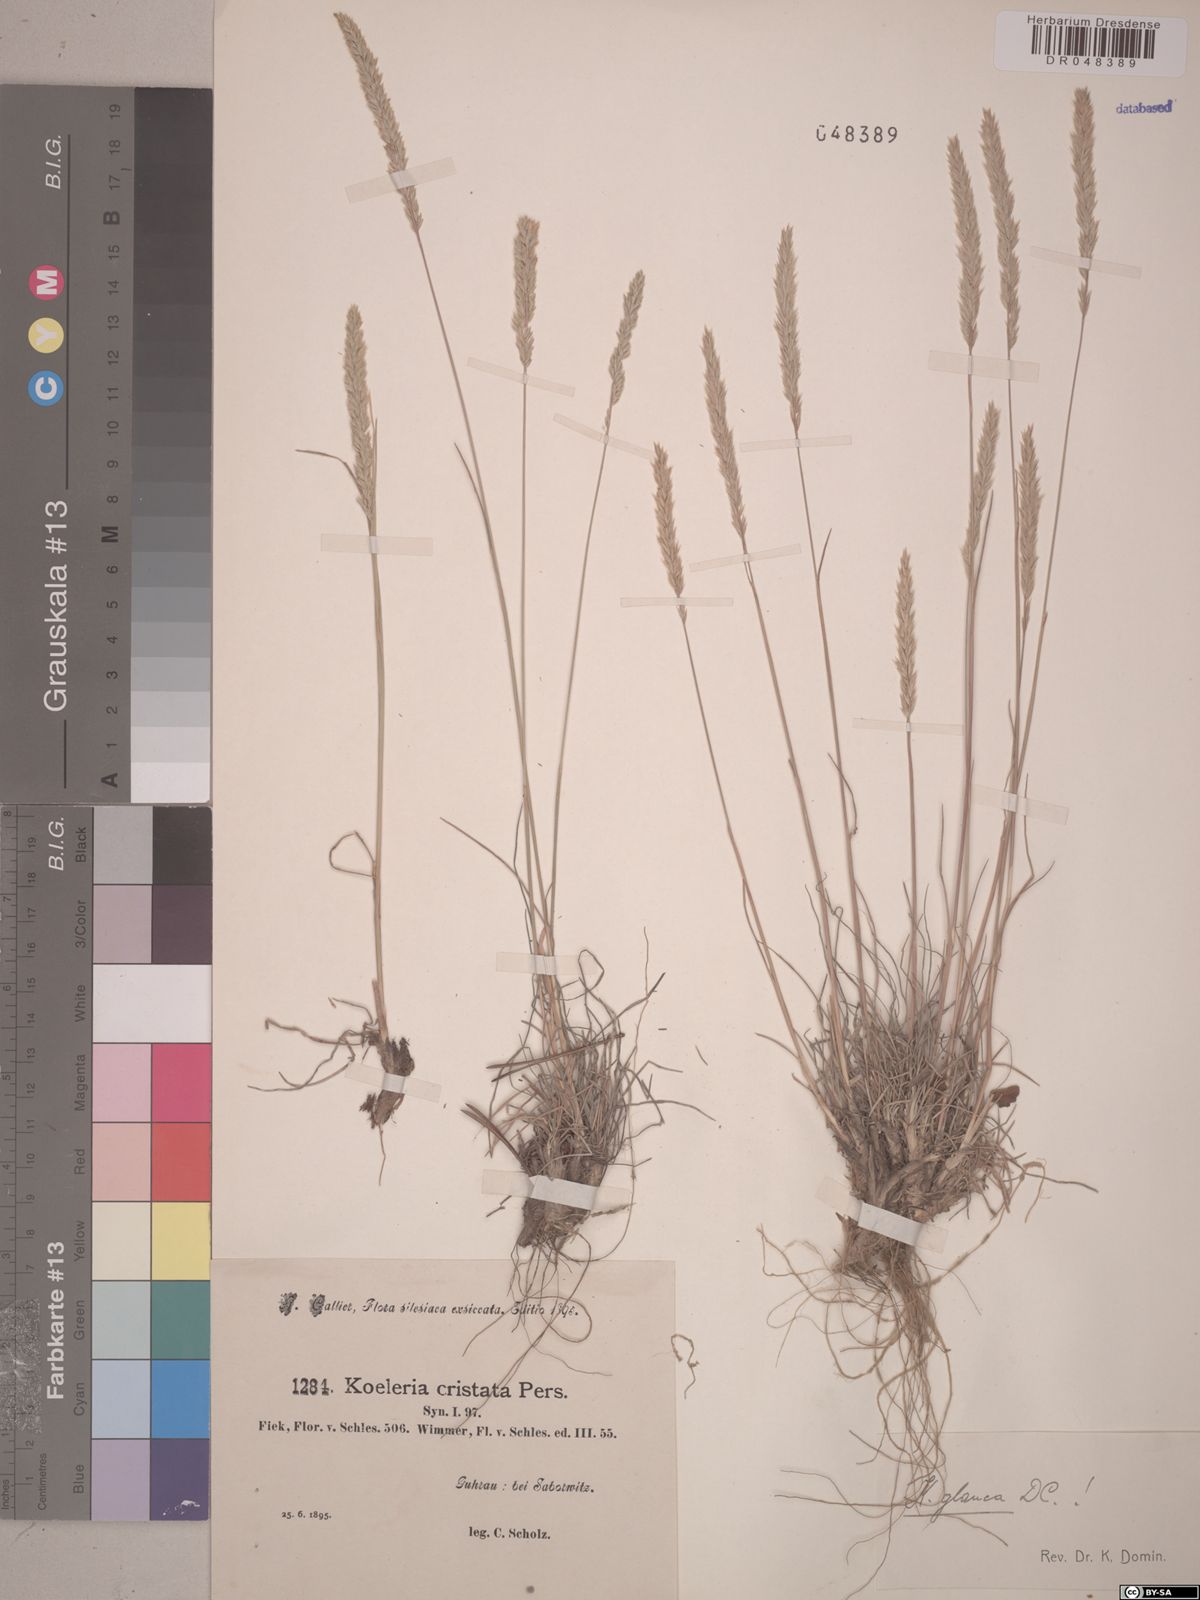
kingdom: Plantae
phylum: Tracheophyta
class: Liliopsida
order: Poales
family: Poaceae
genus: Koeleria
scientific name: Koeleria glauca
